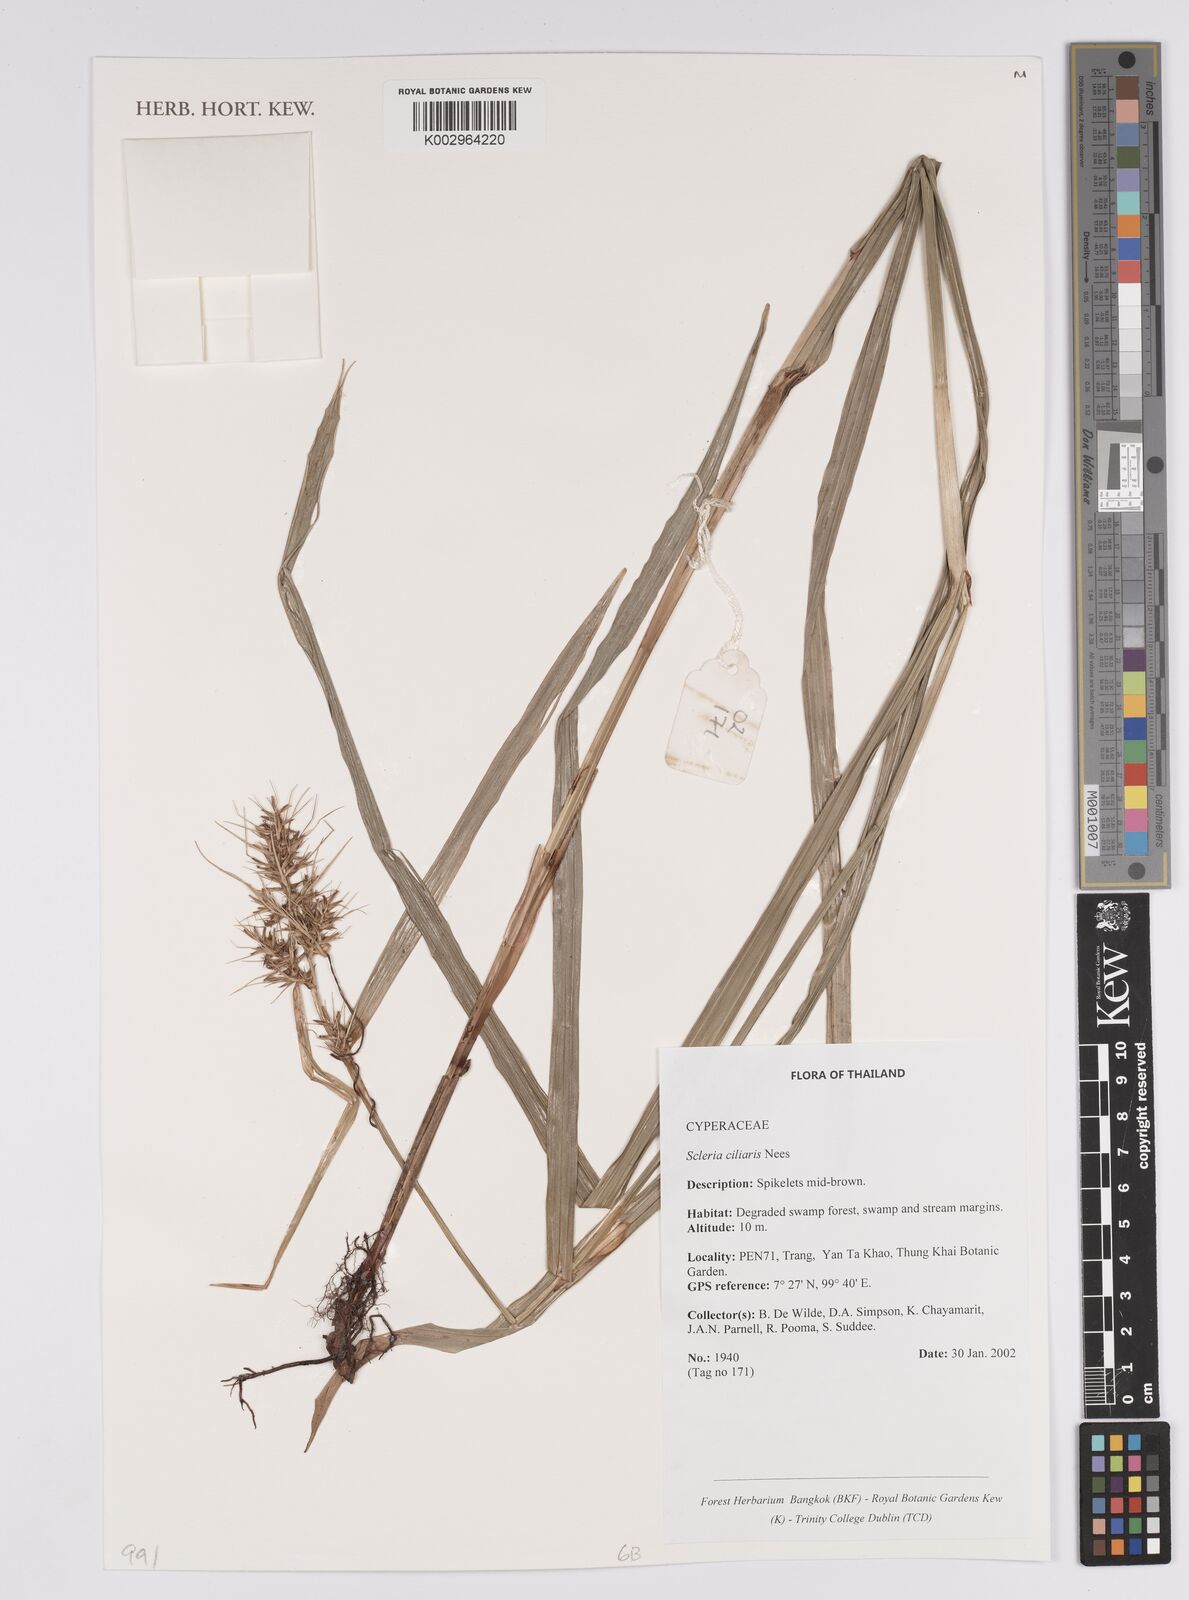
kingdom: Plantae
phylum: Tracheophyta
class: Liliopsida
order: Poales
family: Cyperaceae
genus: Scleria
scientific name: Scleria ciliaris
